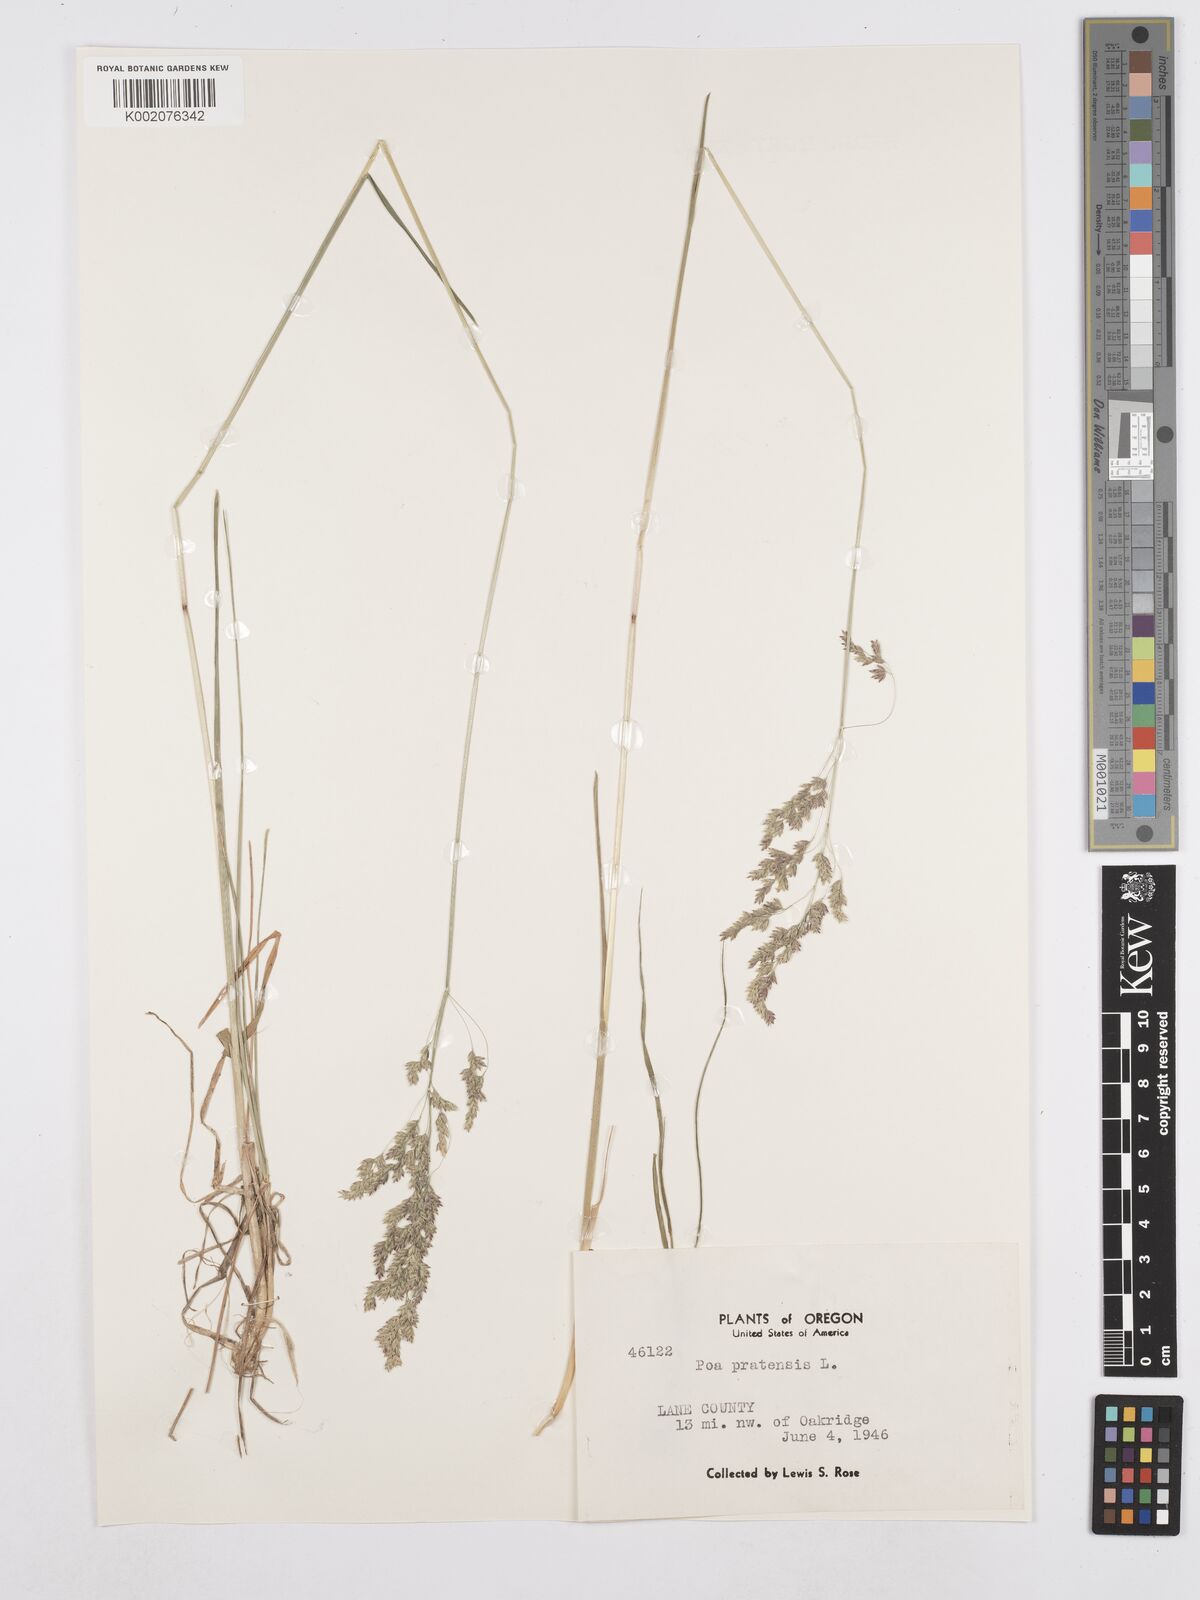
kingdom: Plantae
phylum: Tracheophyta
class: Liliopsida
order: Poales
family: Poaceae
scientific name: Poaceae
